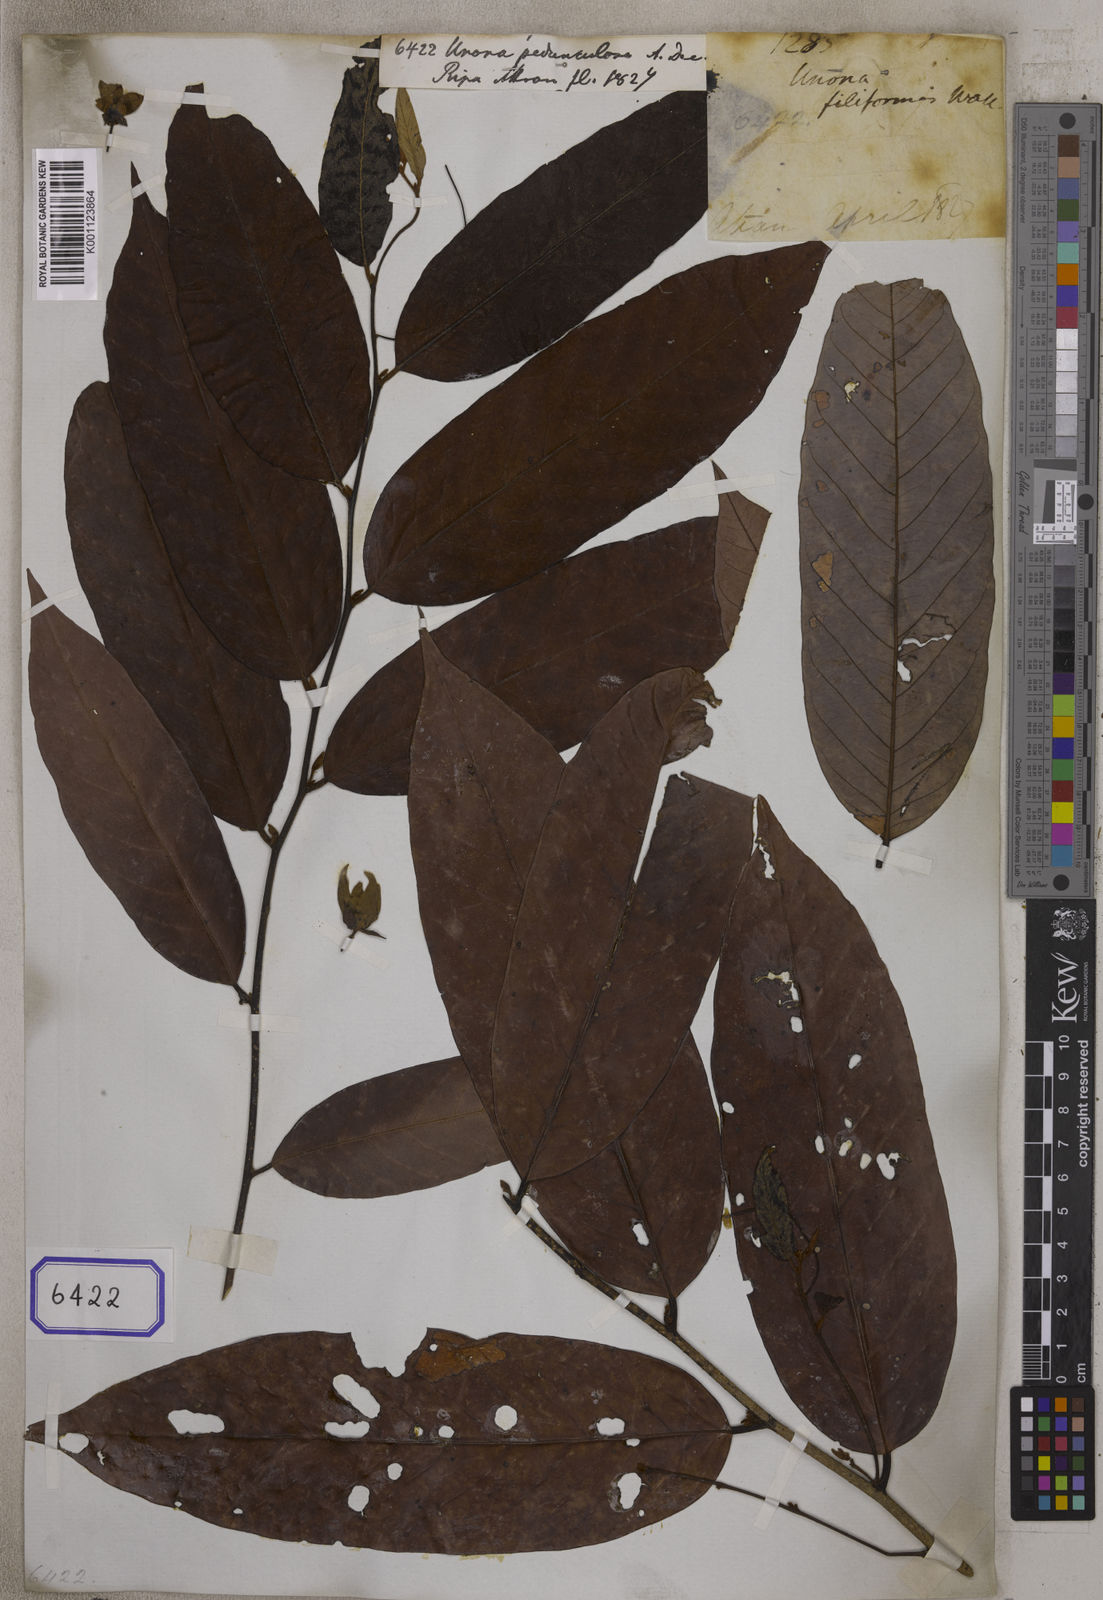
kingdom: Plantae
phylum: Tracheophyta
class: Magnoliopsida
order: Magnoliales
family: Annonaceae
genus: Desmos
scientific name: Desmos pedunculosus
